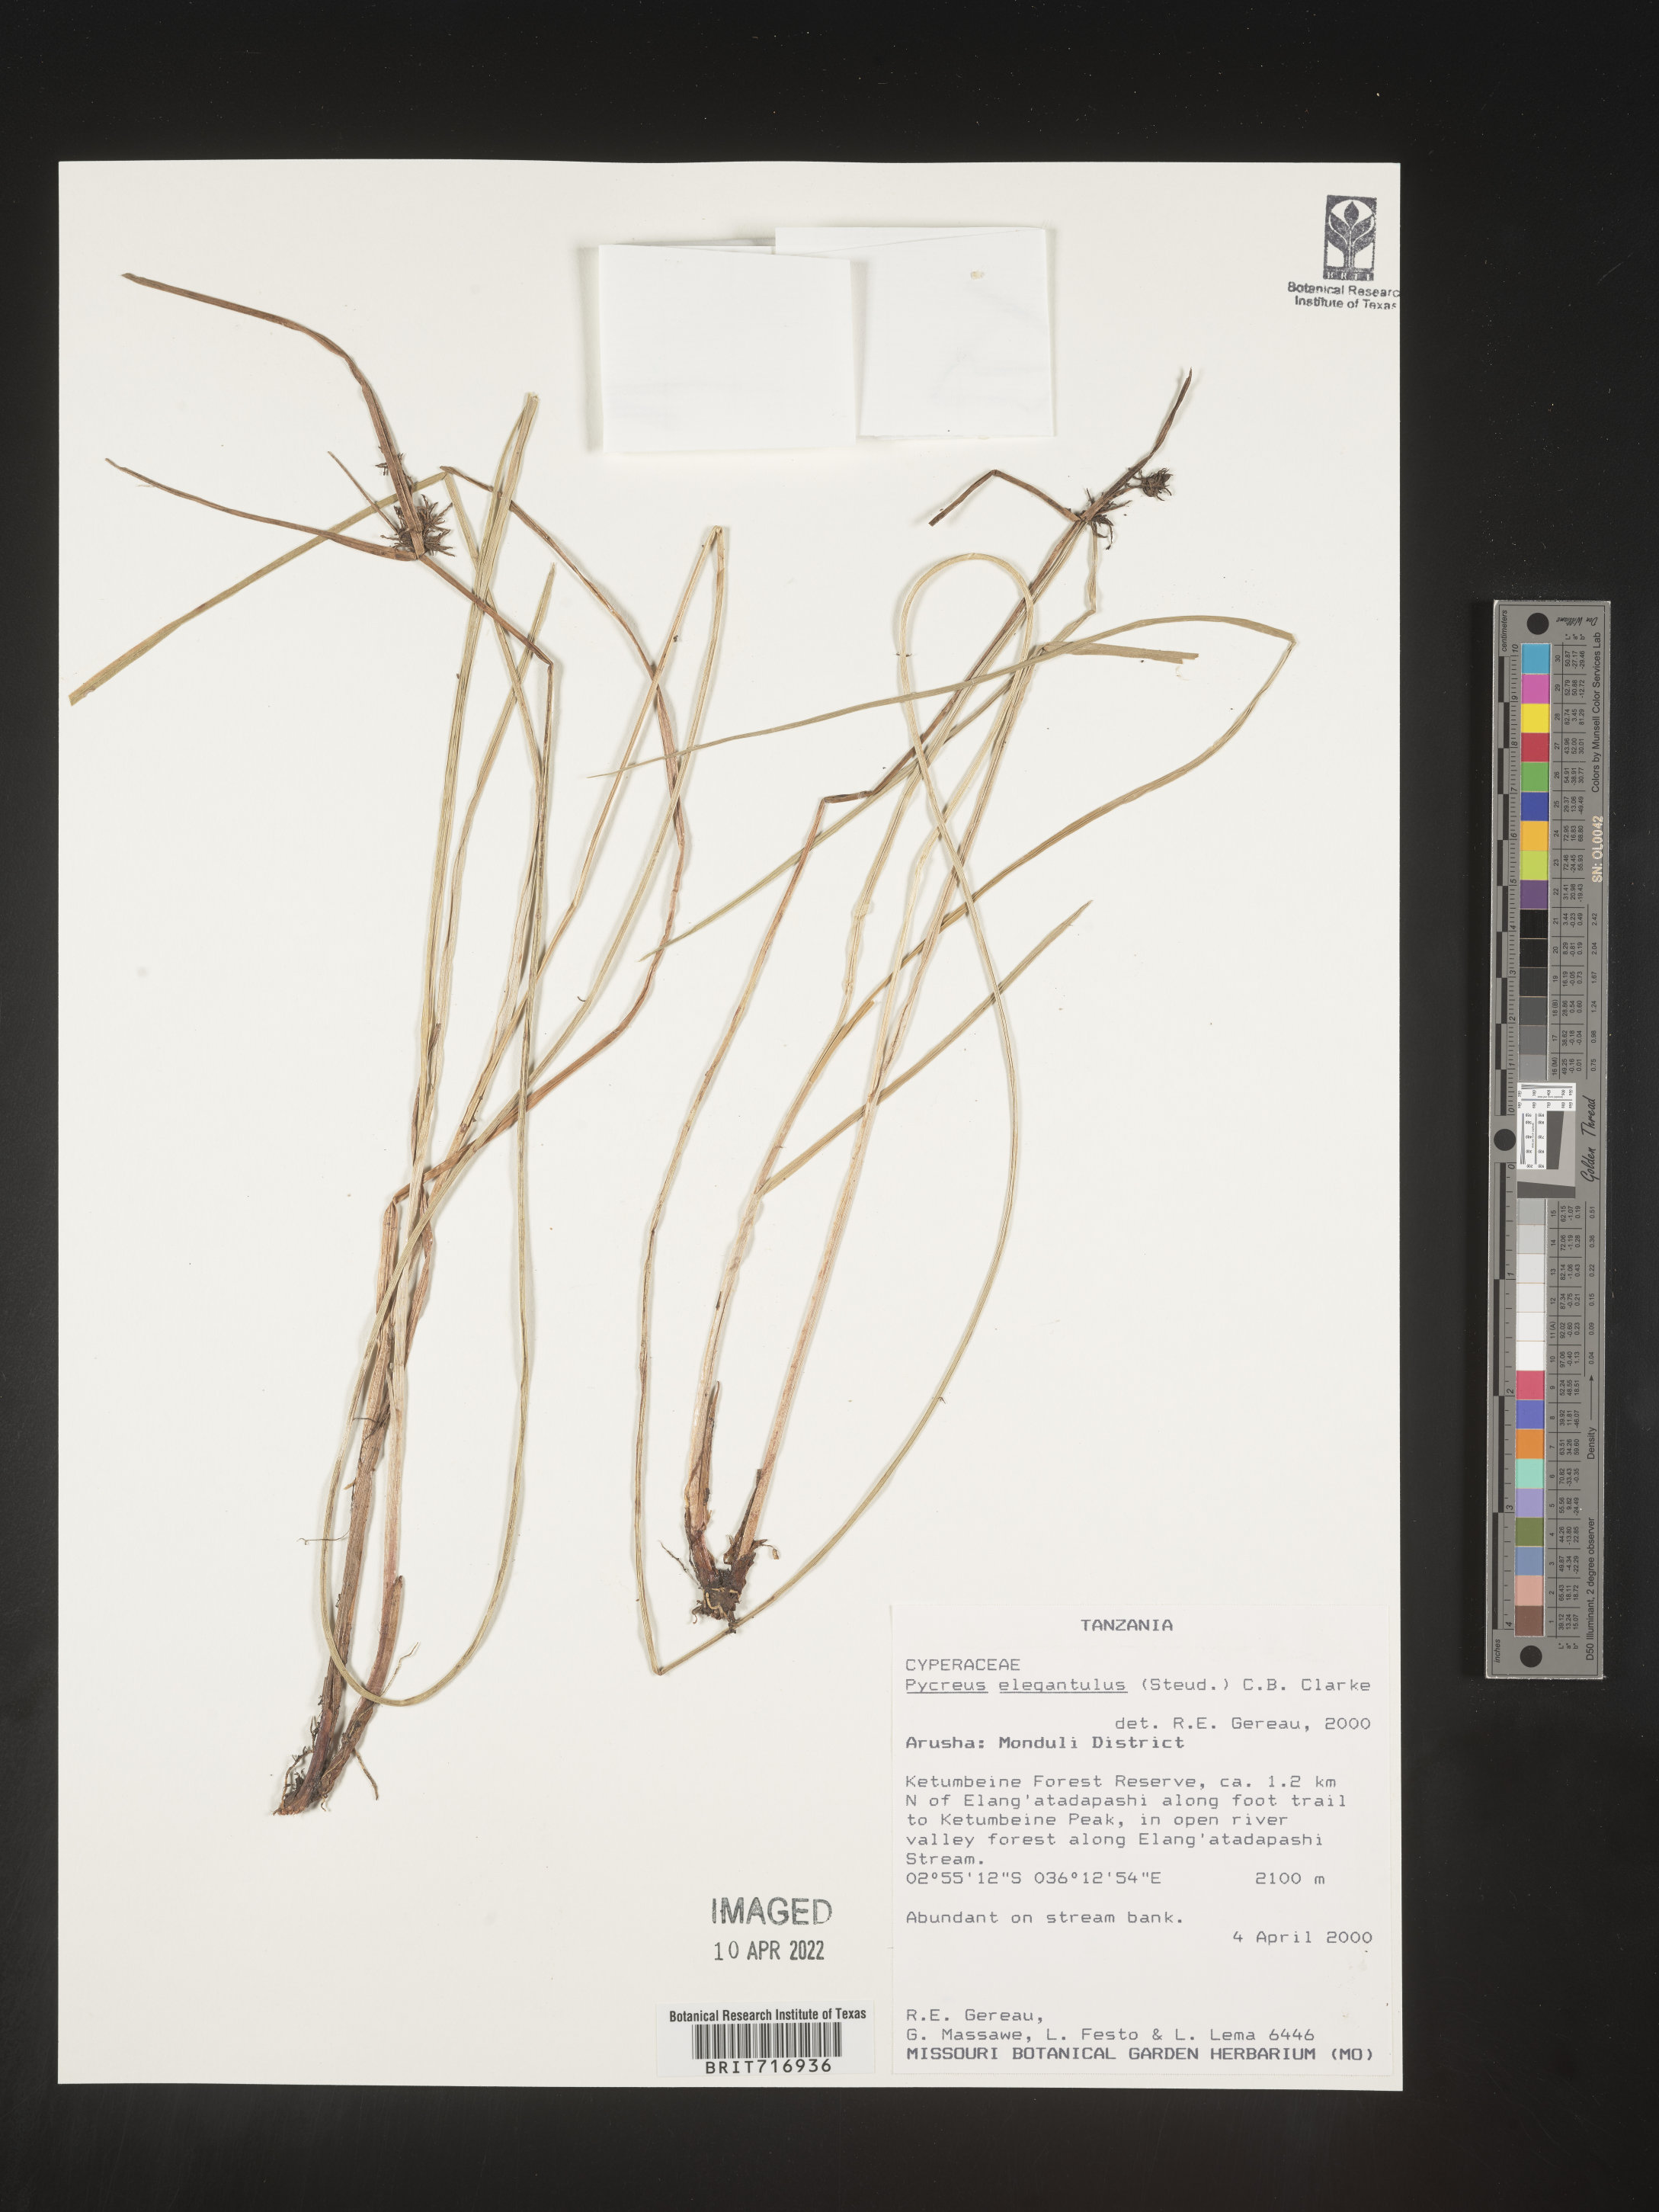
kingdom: Plantae
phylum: Tracheophyta
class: Liliopsida
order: Poales
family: Cyperaceae
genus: Cyperus
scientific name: Cyperus
